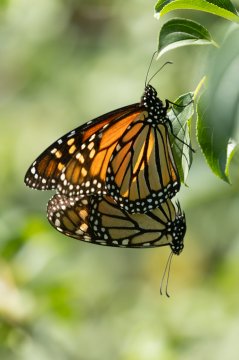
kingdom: Animalia
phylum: Arthropoda
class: Insecta
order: Lepidoptera
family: Nymphalidae
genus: Danaus
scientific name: Danaus plexippus
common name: Monarch
